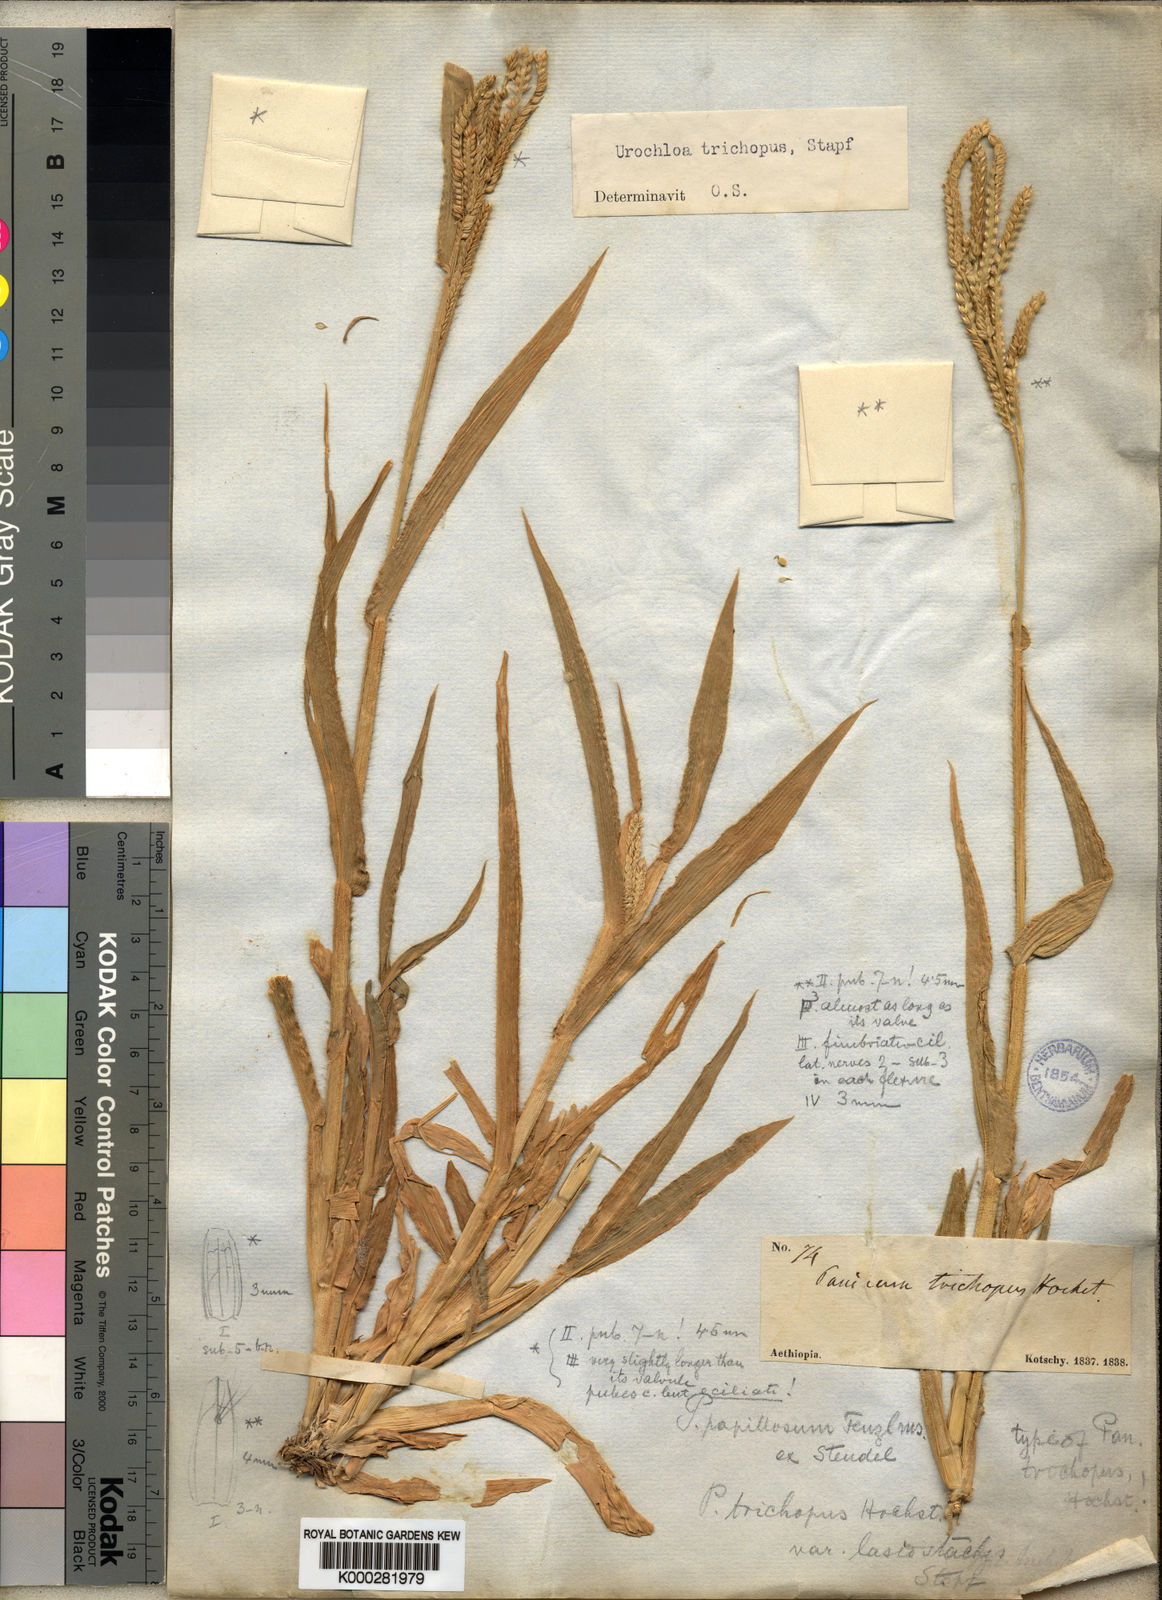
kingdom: Plantae
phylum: Tracheophyta
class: Liliopsida
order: Poales
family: Poaceae
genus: Urochloa
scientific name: Urochloa trichopus
